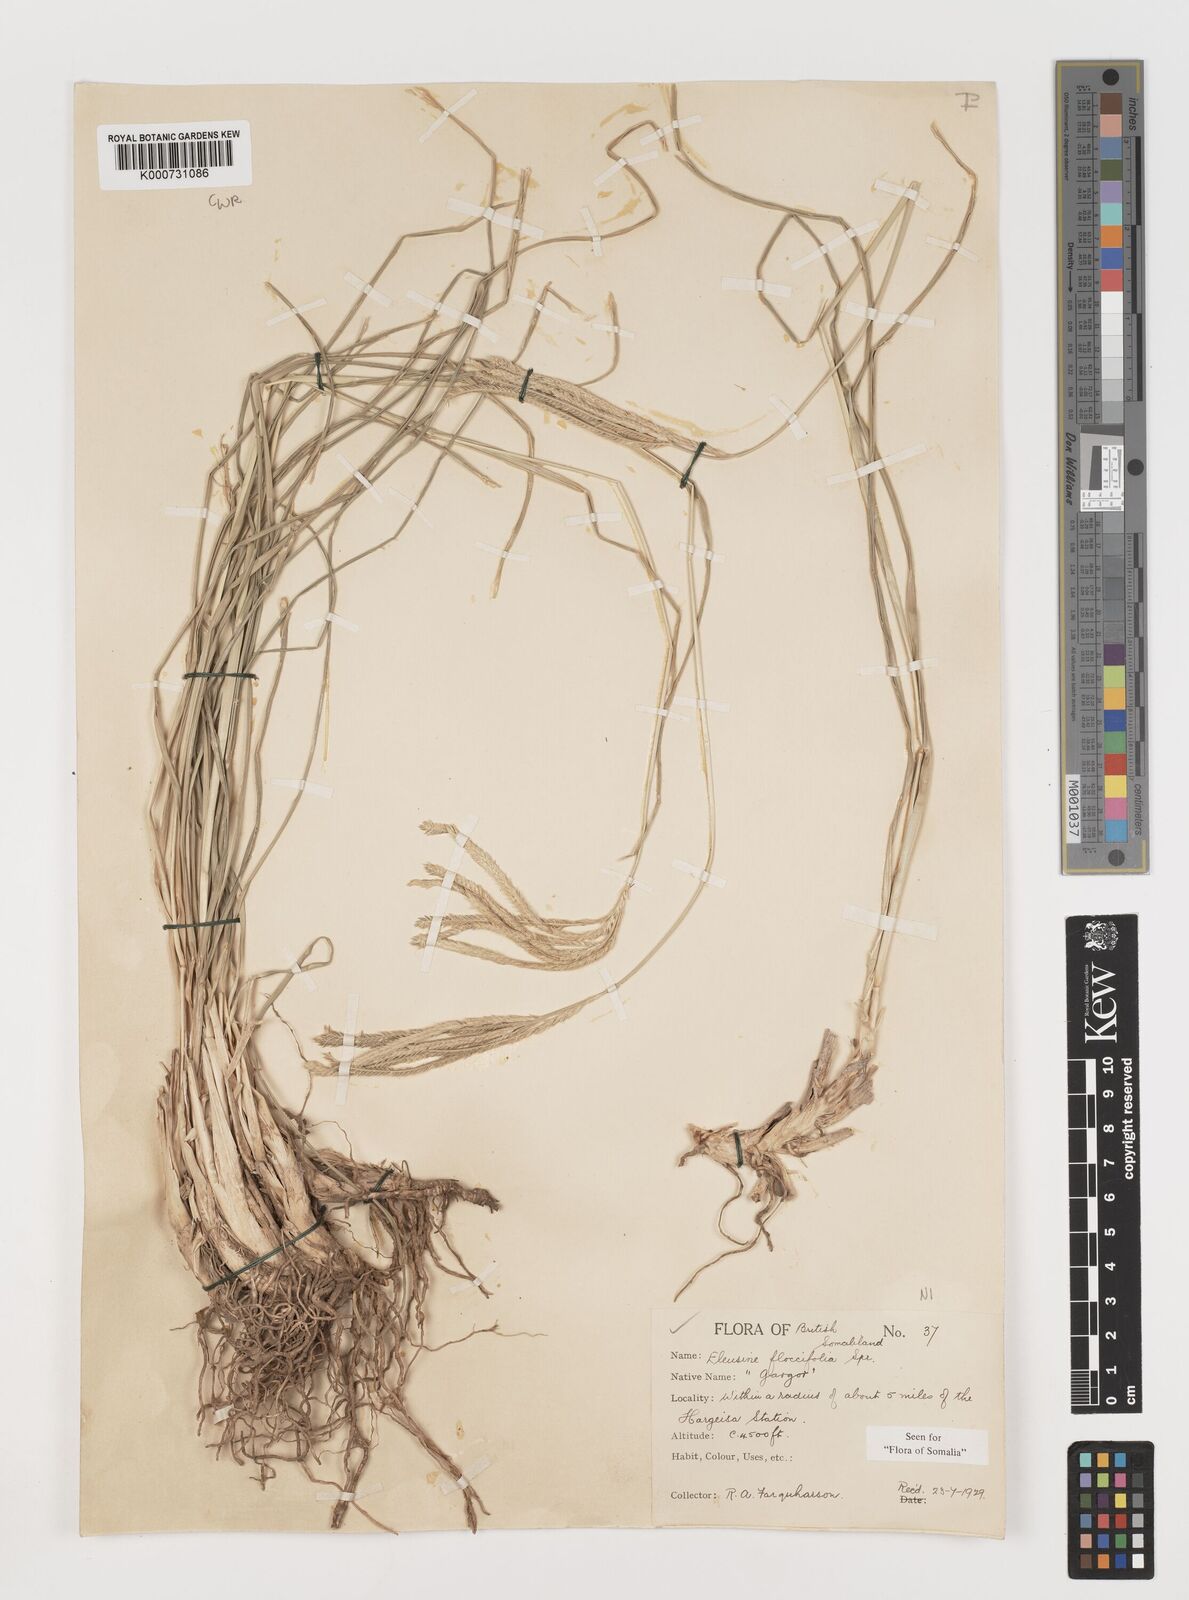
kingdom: Plantae
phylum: Tracheophyta
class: Liliopsida
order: Poales
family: Poaceae
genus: Eleusine
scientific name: Eleusine floccifolia
